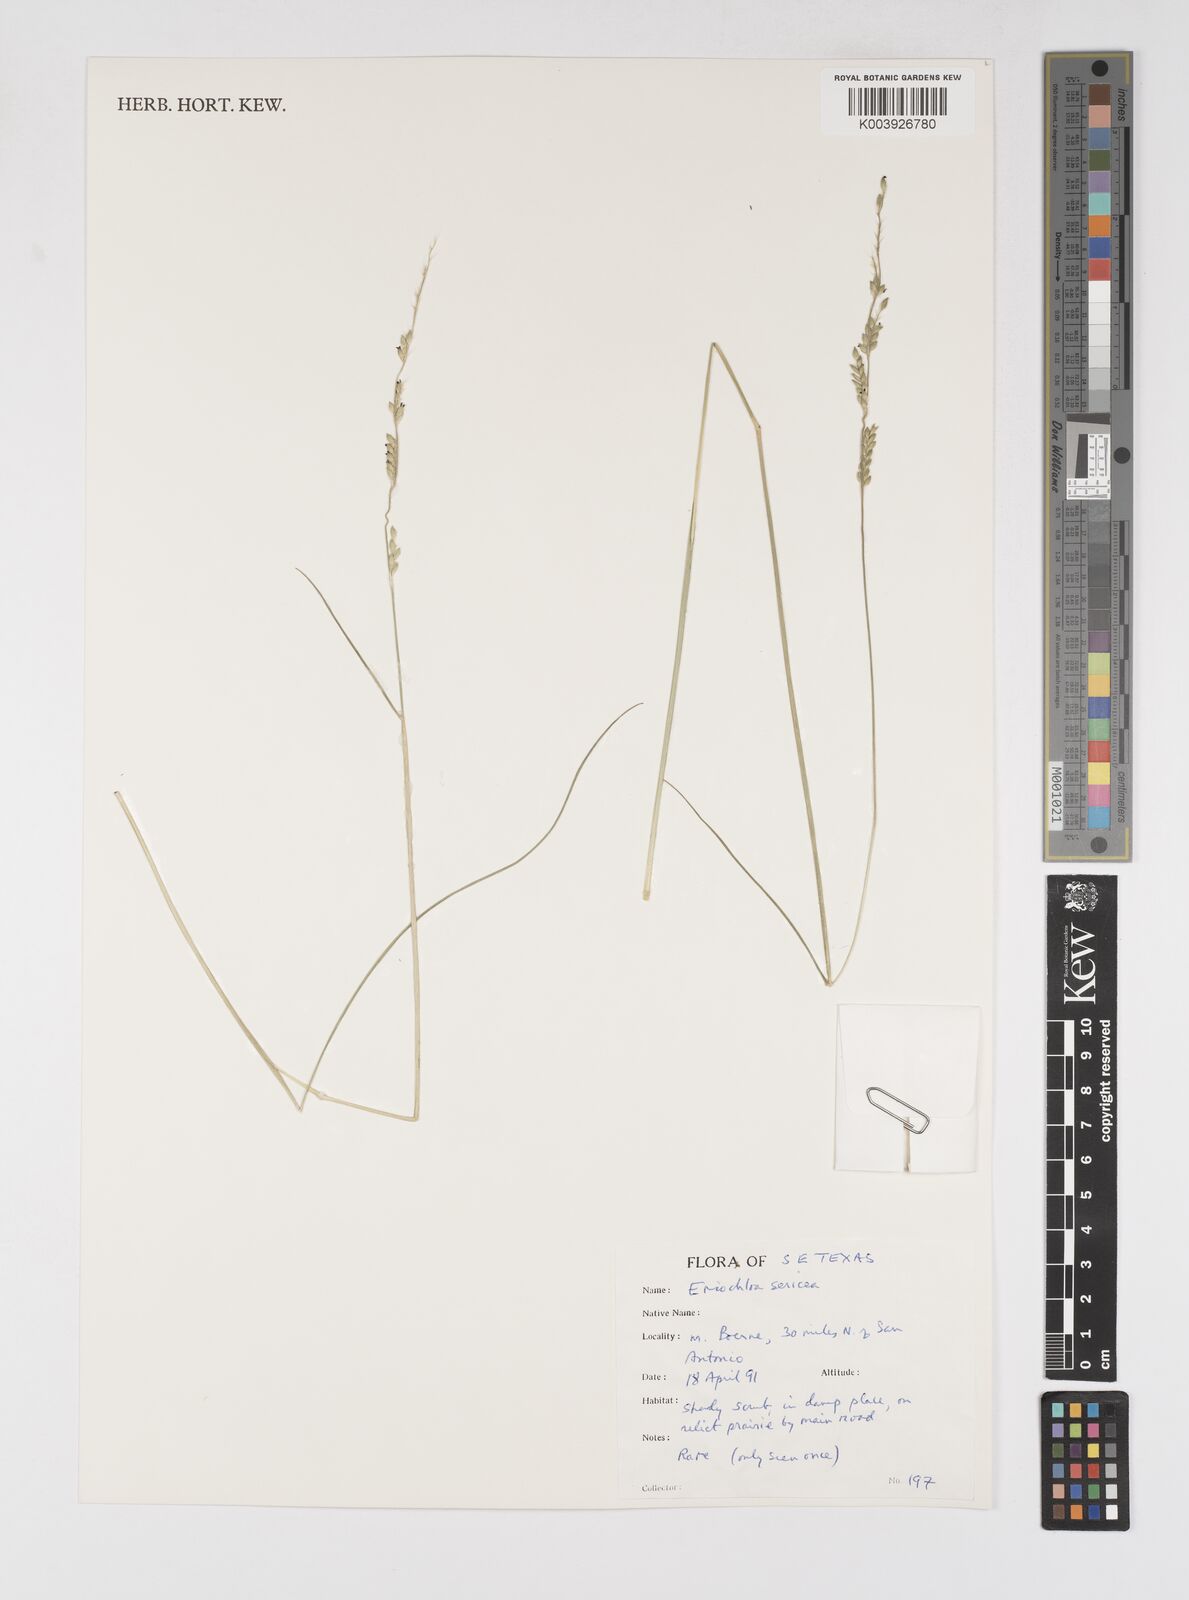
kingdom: Plantae
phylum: Tracheophyta
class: Liliopsida
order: Poales
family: Poaceae
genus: Eriochloa
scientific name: Eriochloa sericea
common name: Texas cup grass
